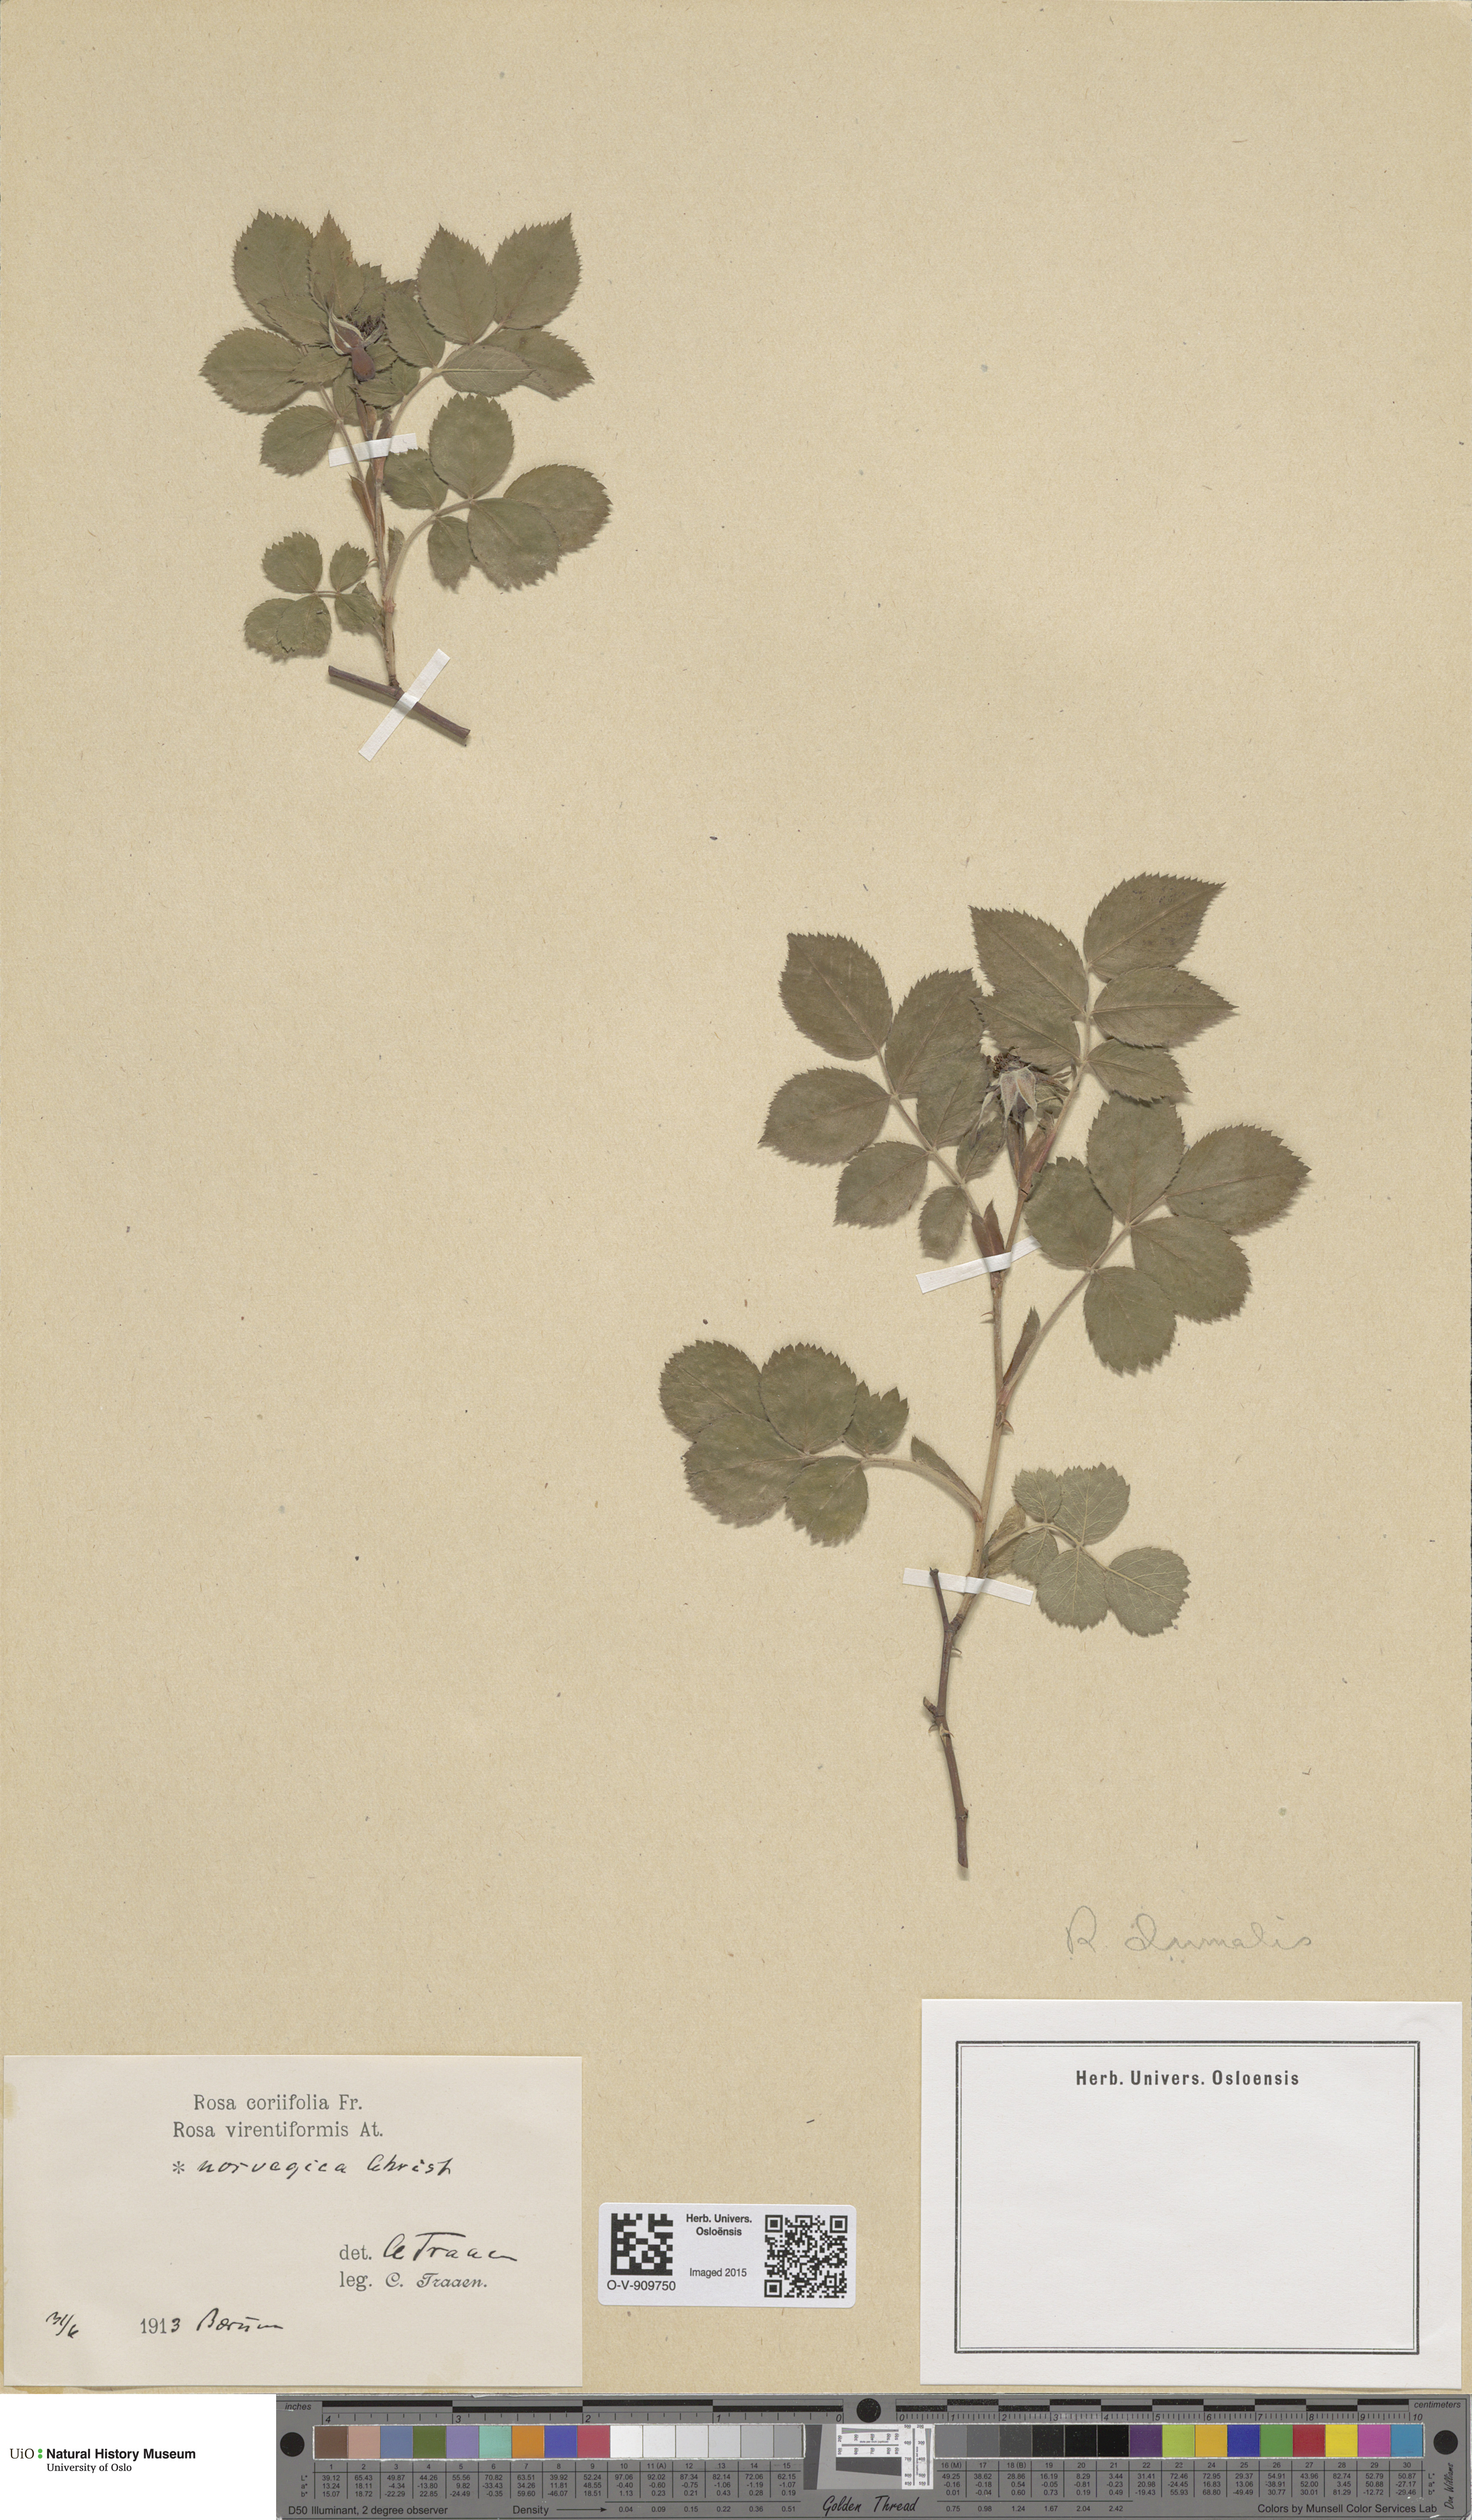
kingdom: Plantae
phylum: Tracheophyta
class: Magnoliopsida
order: Rosales
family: Rosaceae
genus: Rosa
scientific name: Rosa caesia
